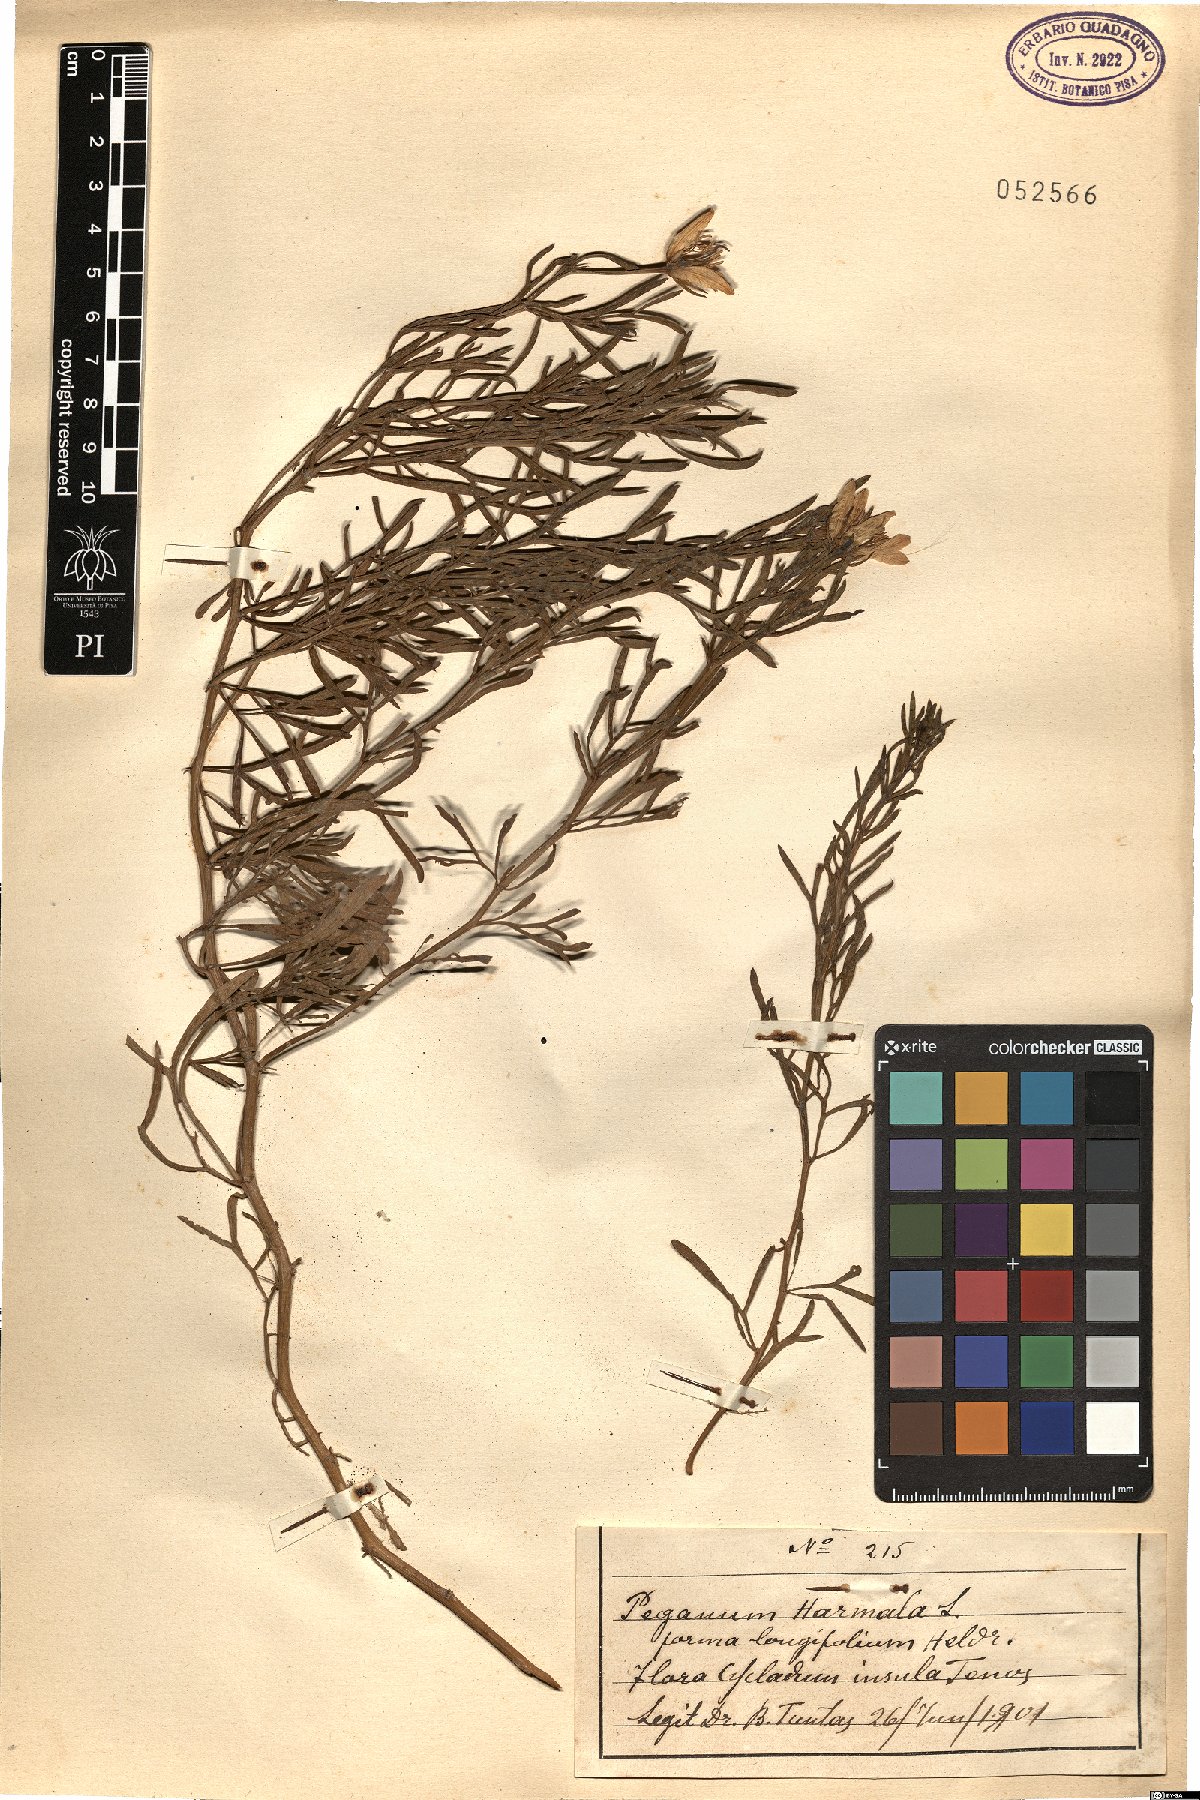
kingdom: Plantae
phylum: Tracheophyta
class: Magnoliopsida
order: Sapindales
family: Tetradiclidaceae
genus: Peganum
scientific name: Peganum harmala
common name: Harmal peganum
